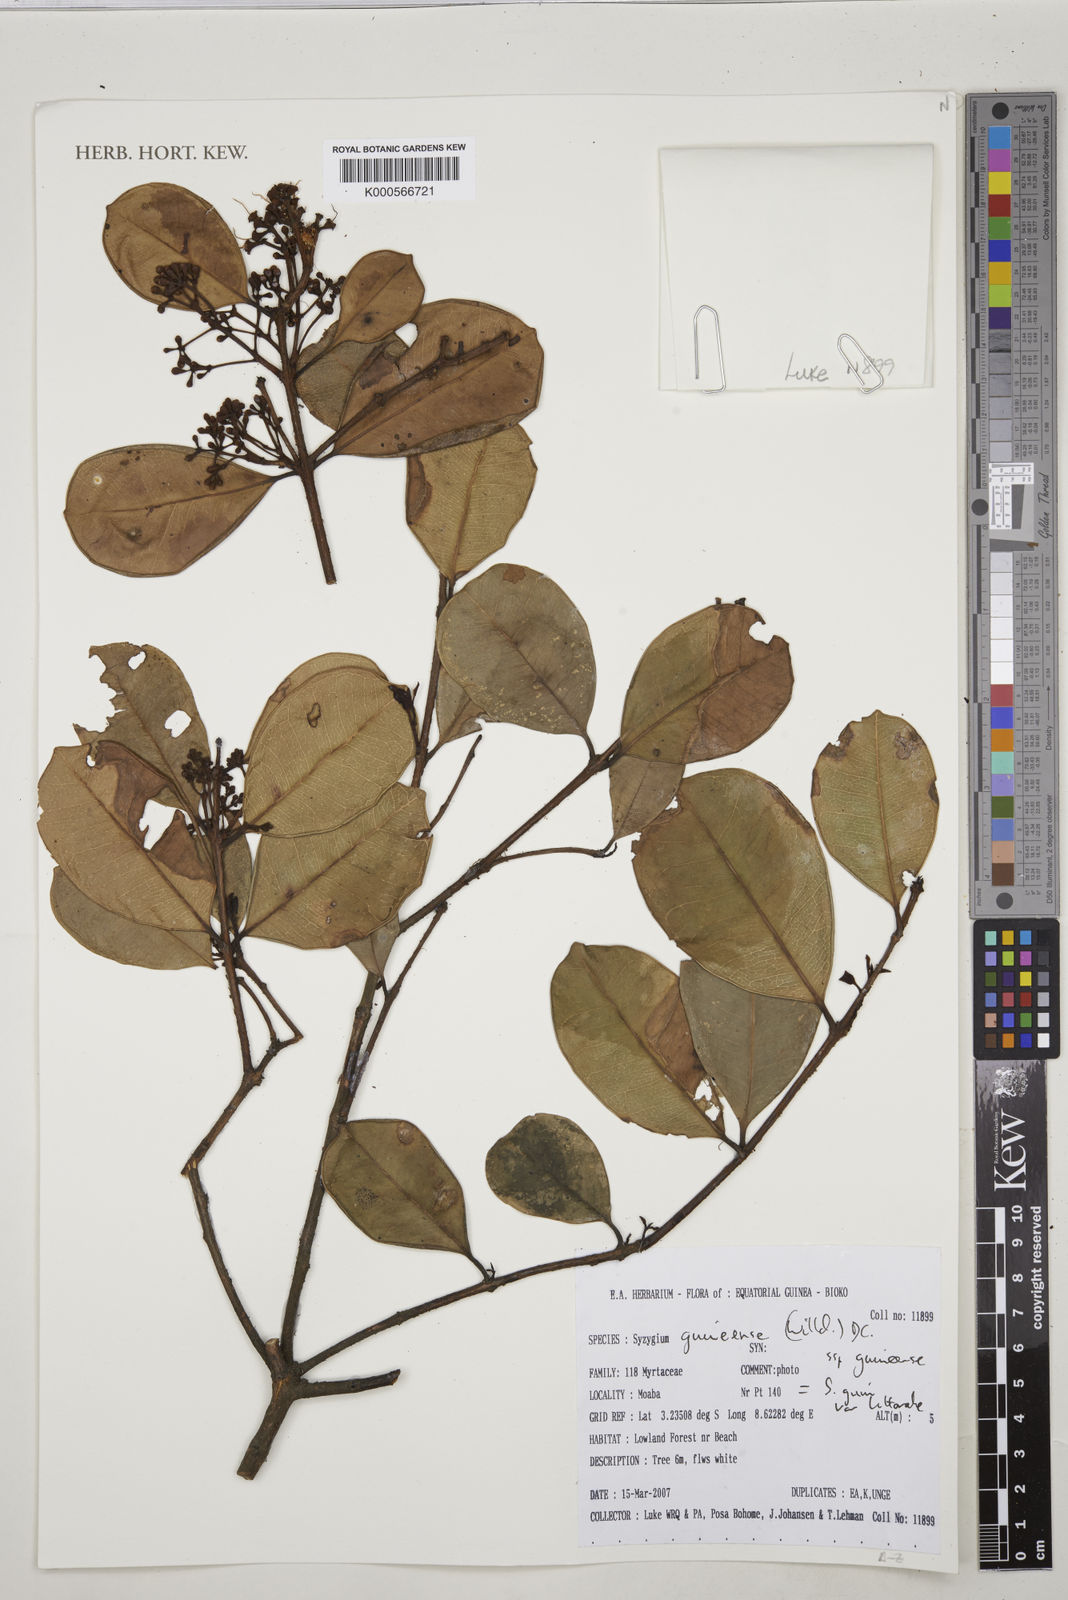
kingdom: Plantae
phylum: Tracheophyta
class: Magnoliopsida
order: Myrtales
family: Myrtaceae
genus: Syzygium
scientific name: Syzygium guineense
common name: Water-pear
